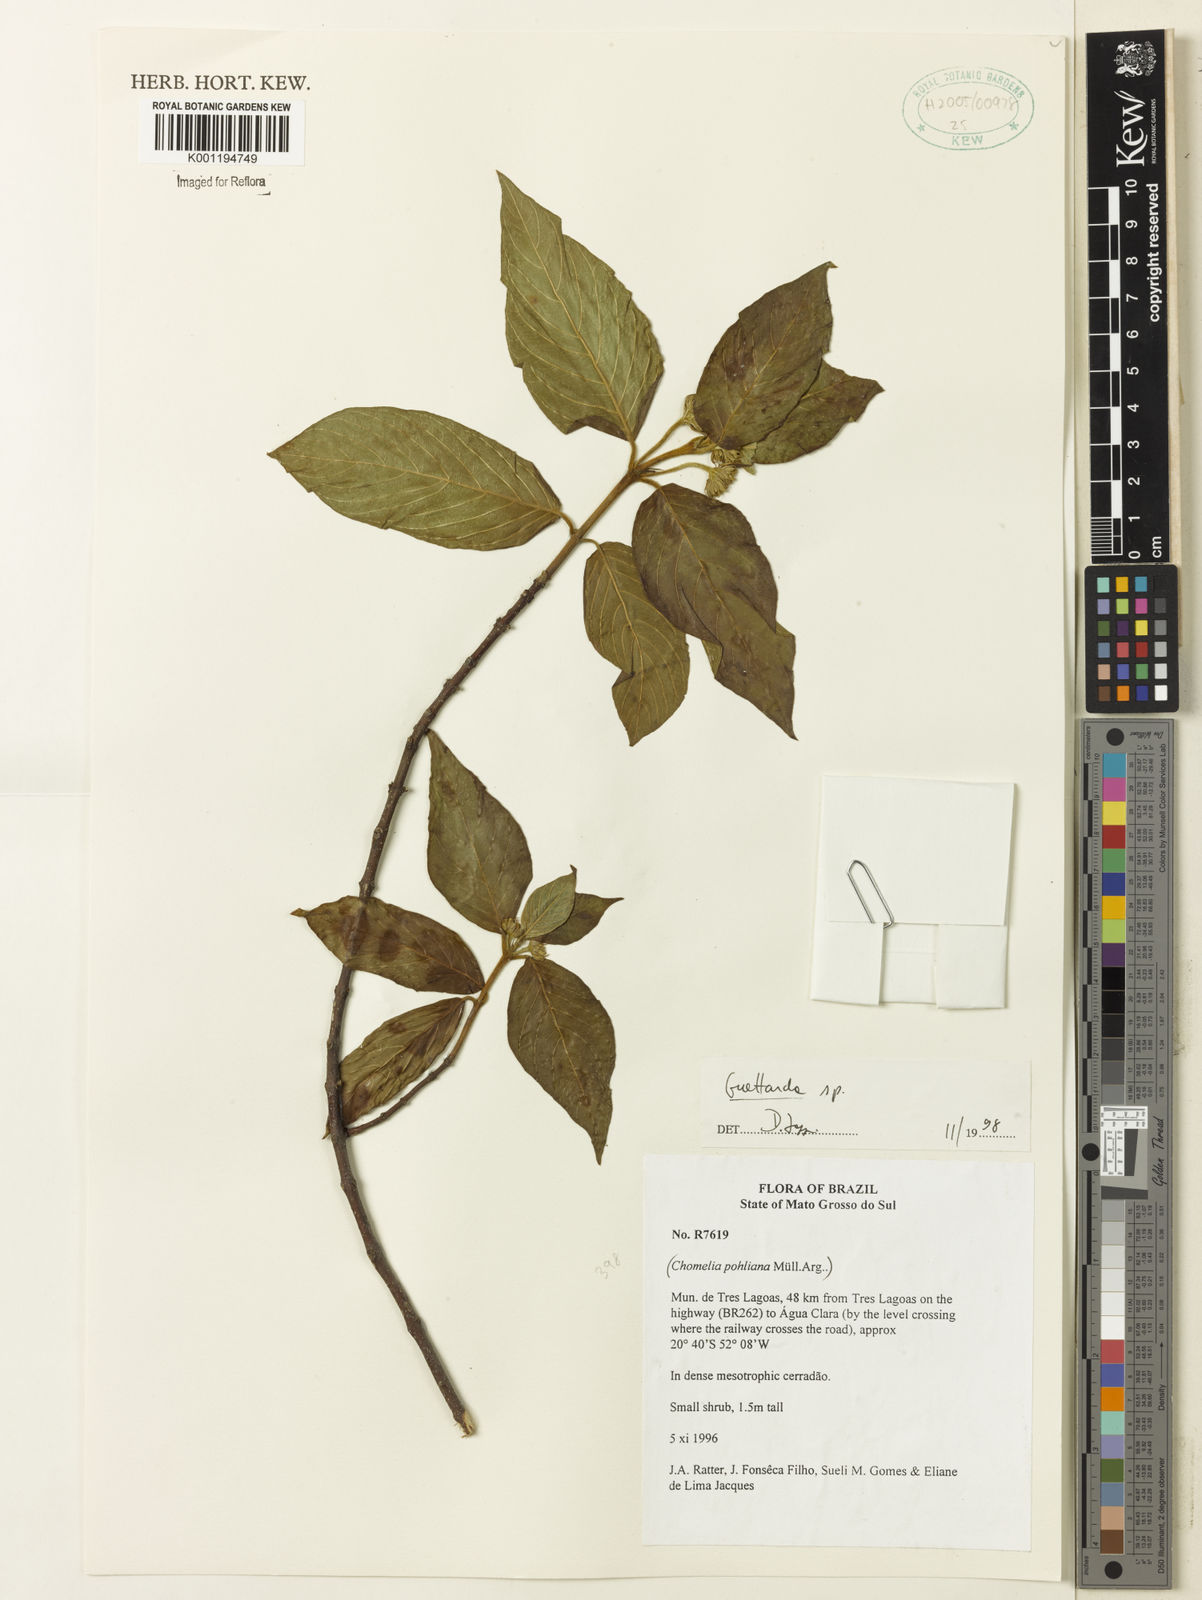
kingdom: Plantae
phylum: Tracheophyta
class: Magnoliopsida
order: Gentianales
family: Rubiaceae
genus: Guettarda
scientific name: Guettarda
